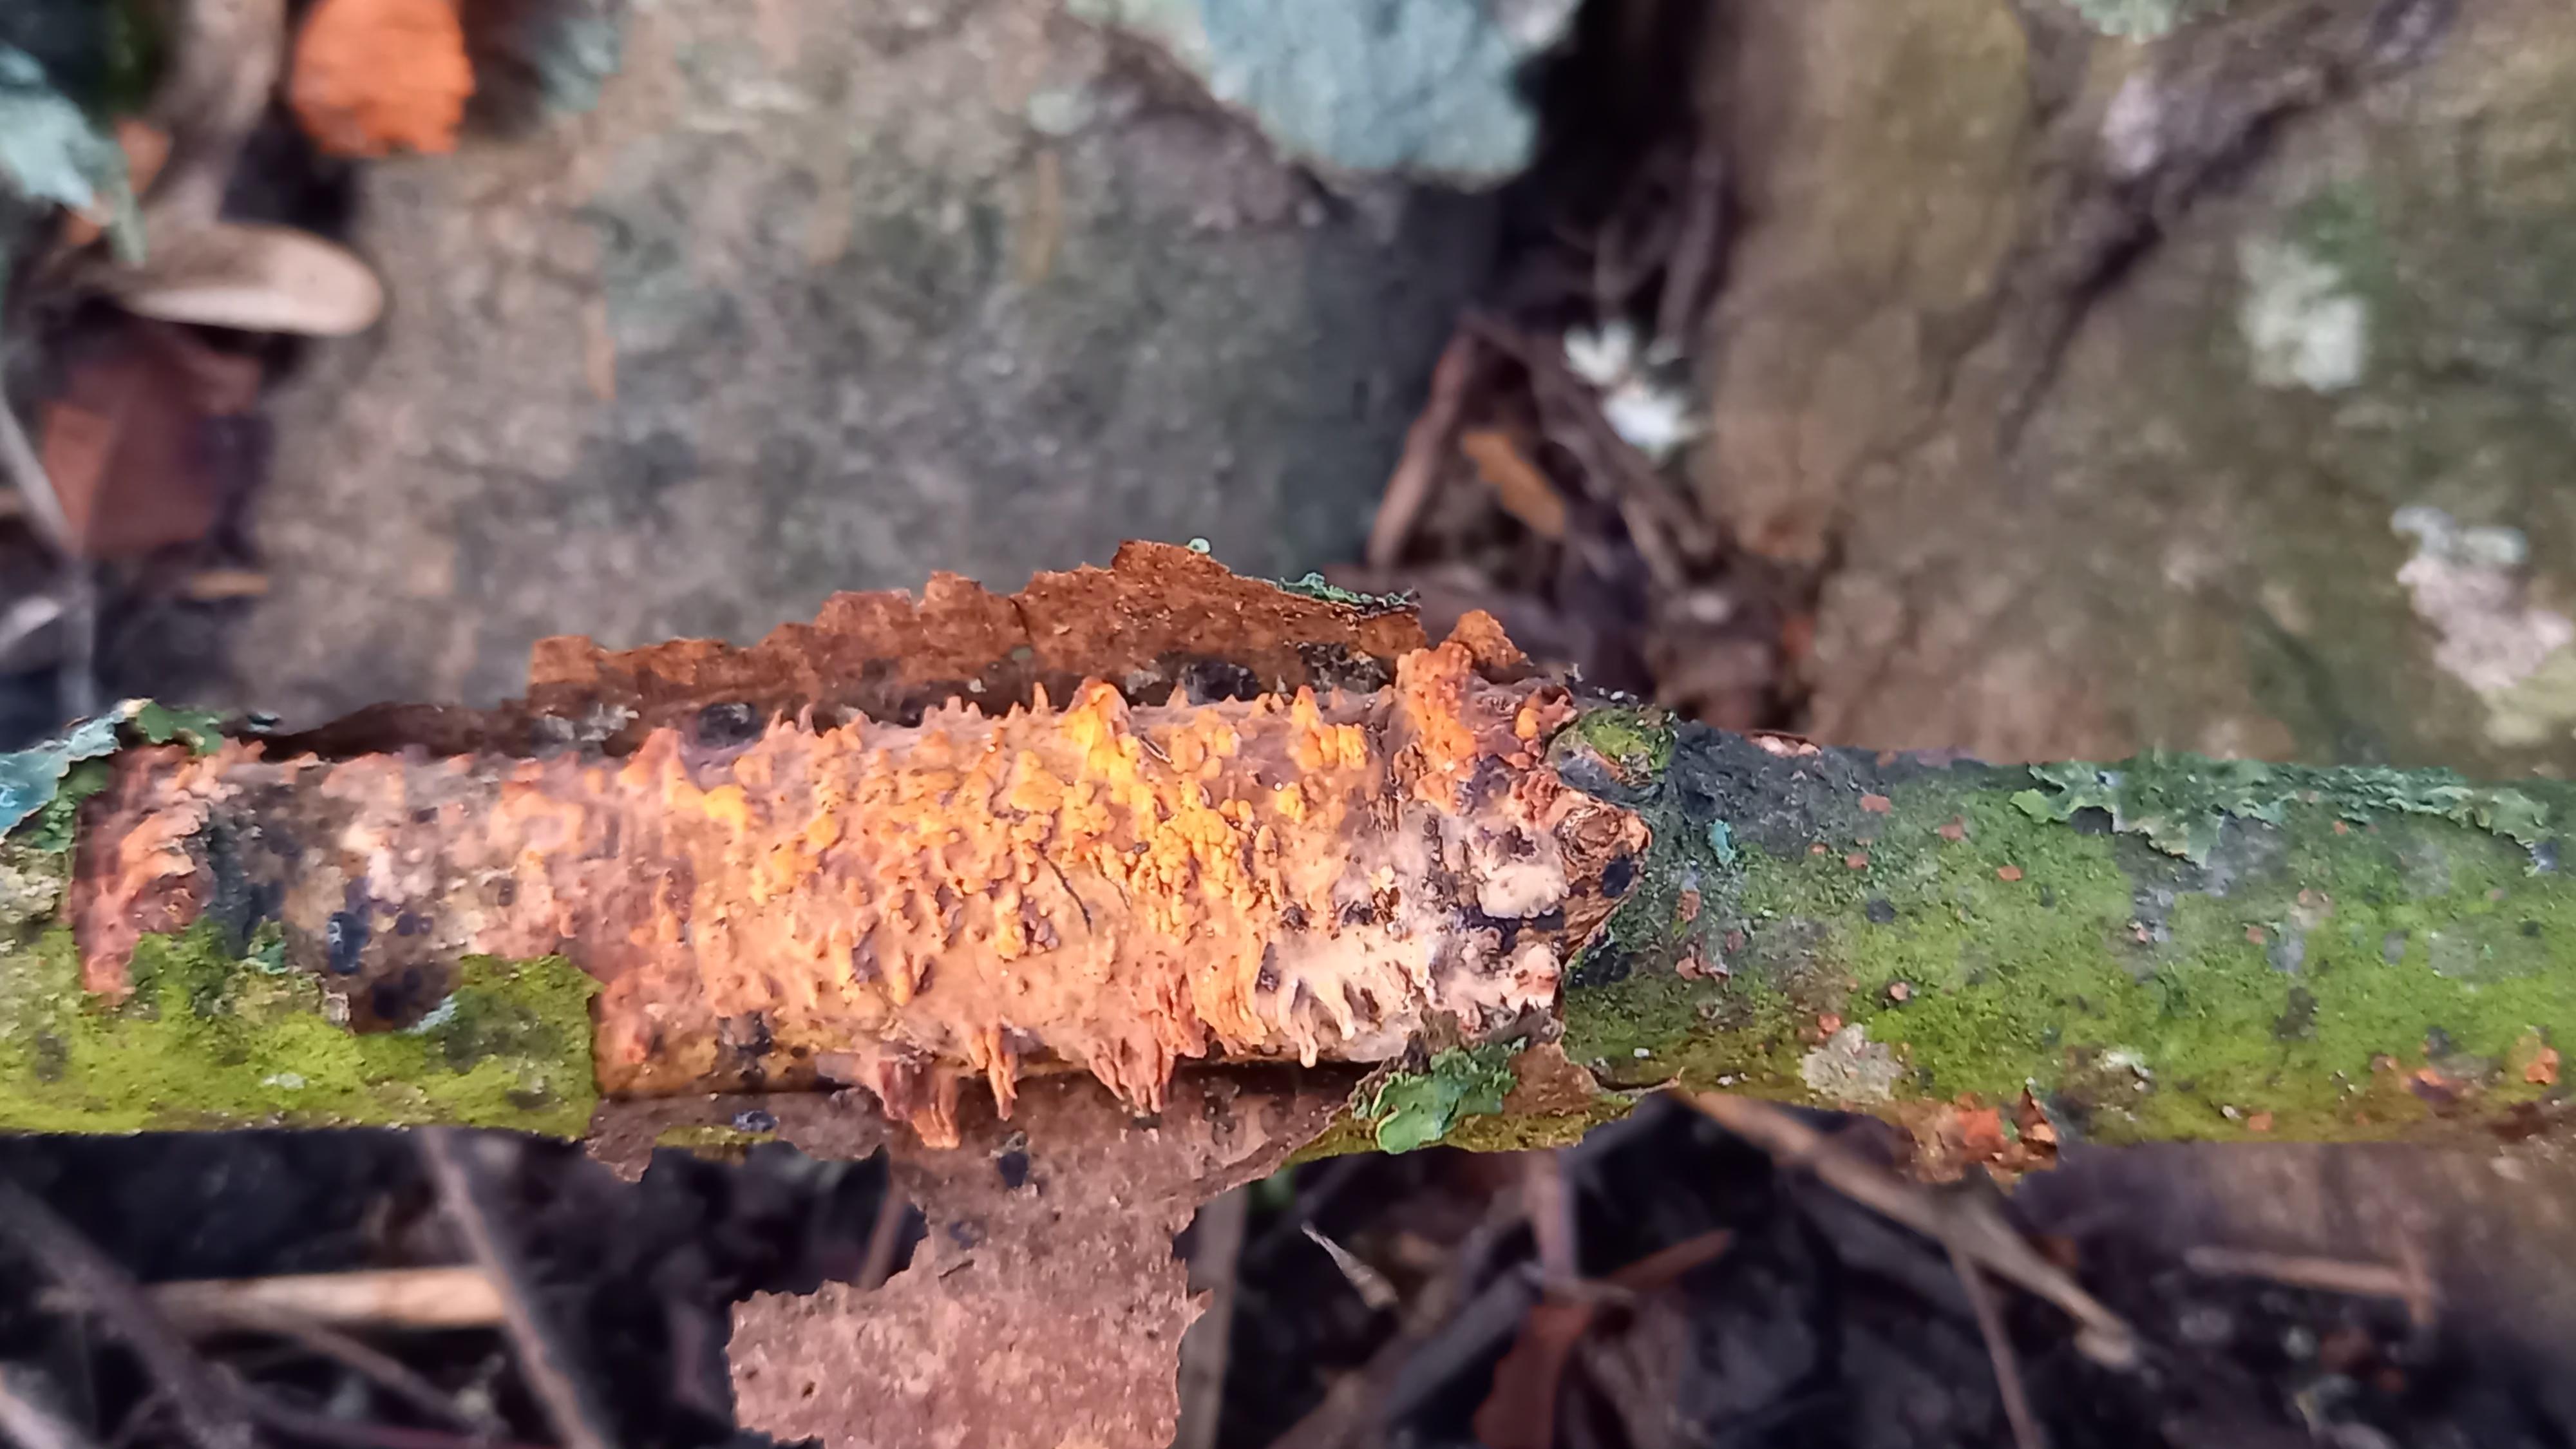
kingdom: Fungi
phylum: Basidiomycota
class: Agaricomycetes
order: Russulales
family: Peniophoraceae
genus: Peniophora
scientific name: Peniophora laeta
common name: tandet voksskind
